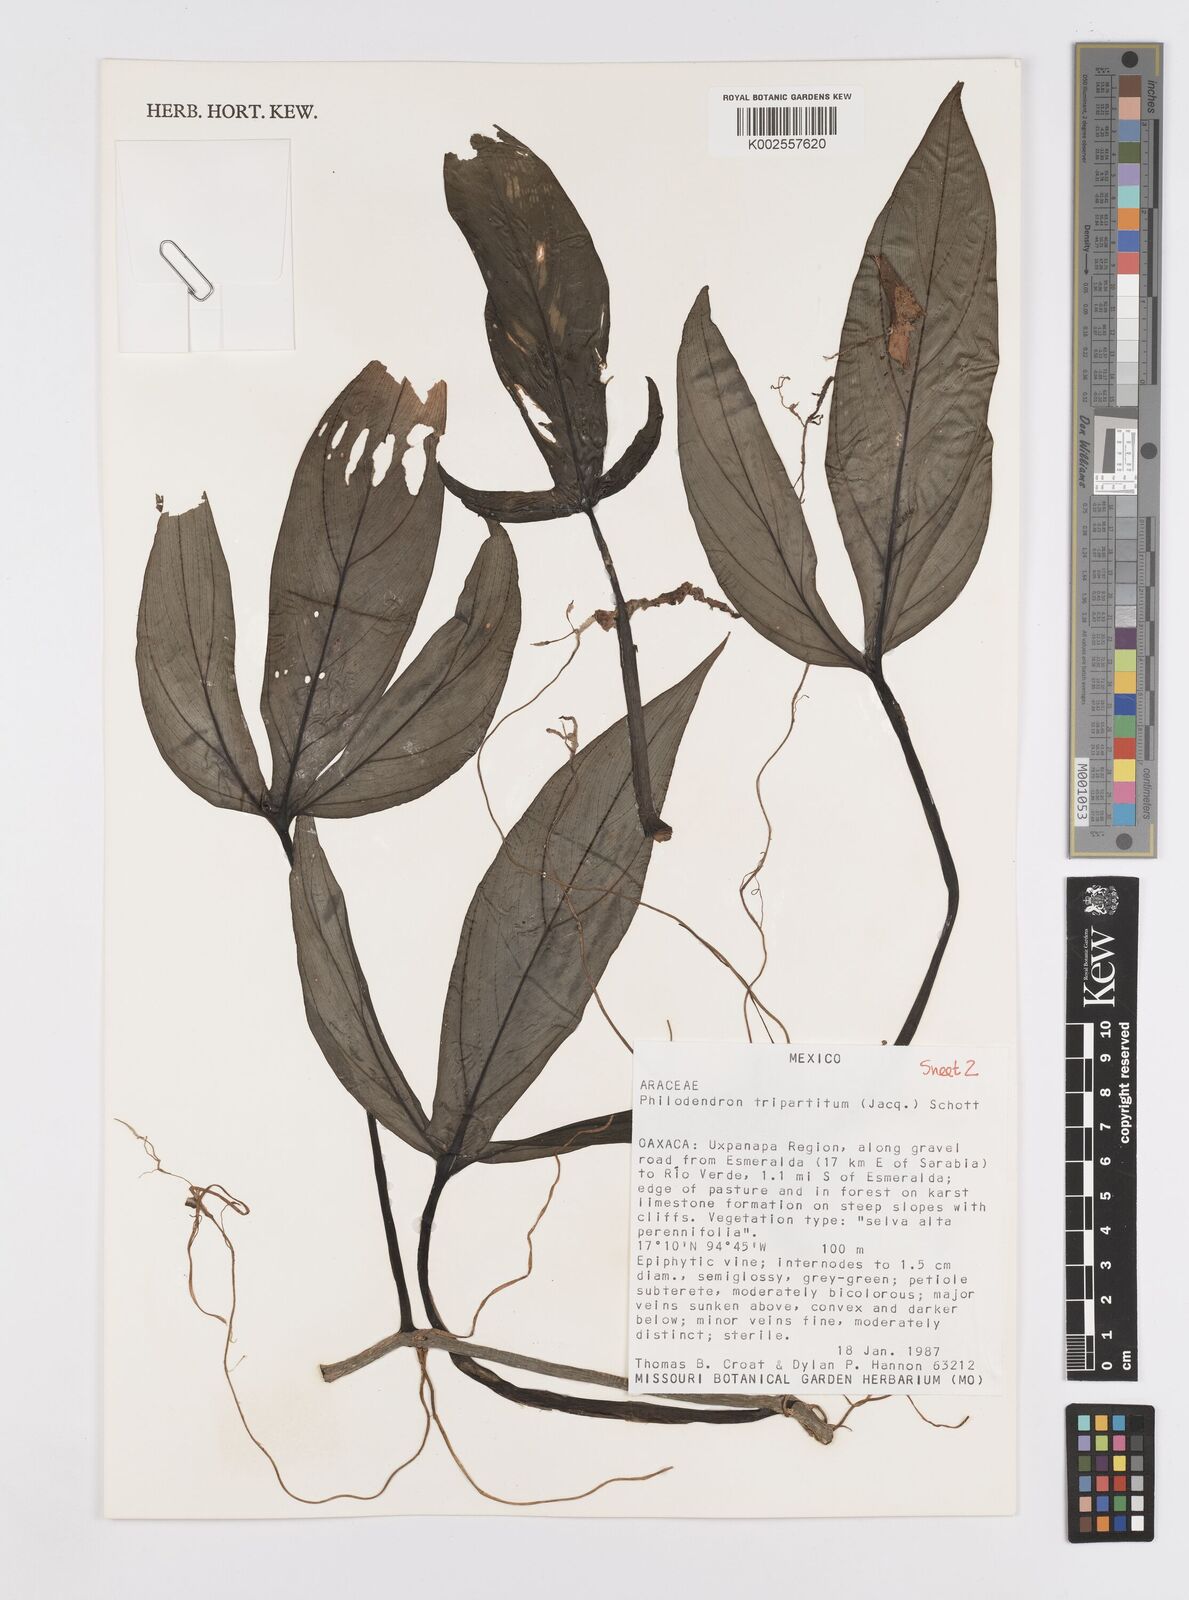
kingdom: Plantae
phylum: Tracheophyta
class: Liliopsida
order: Alismatales
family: Araceae
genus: Philodendron
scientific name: Philodendron tripartitum
